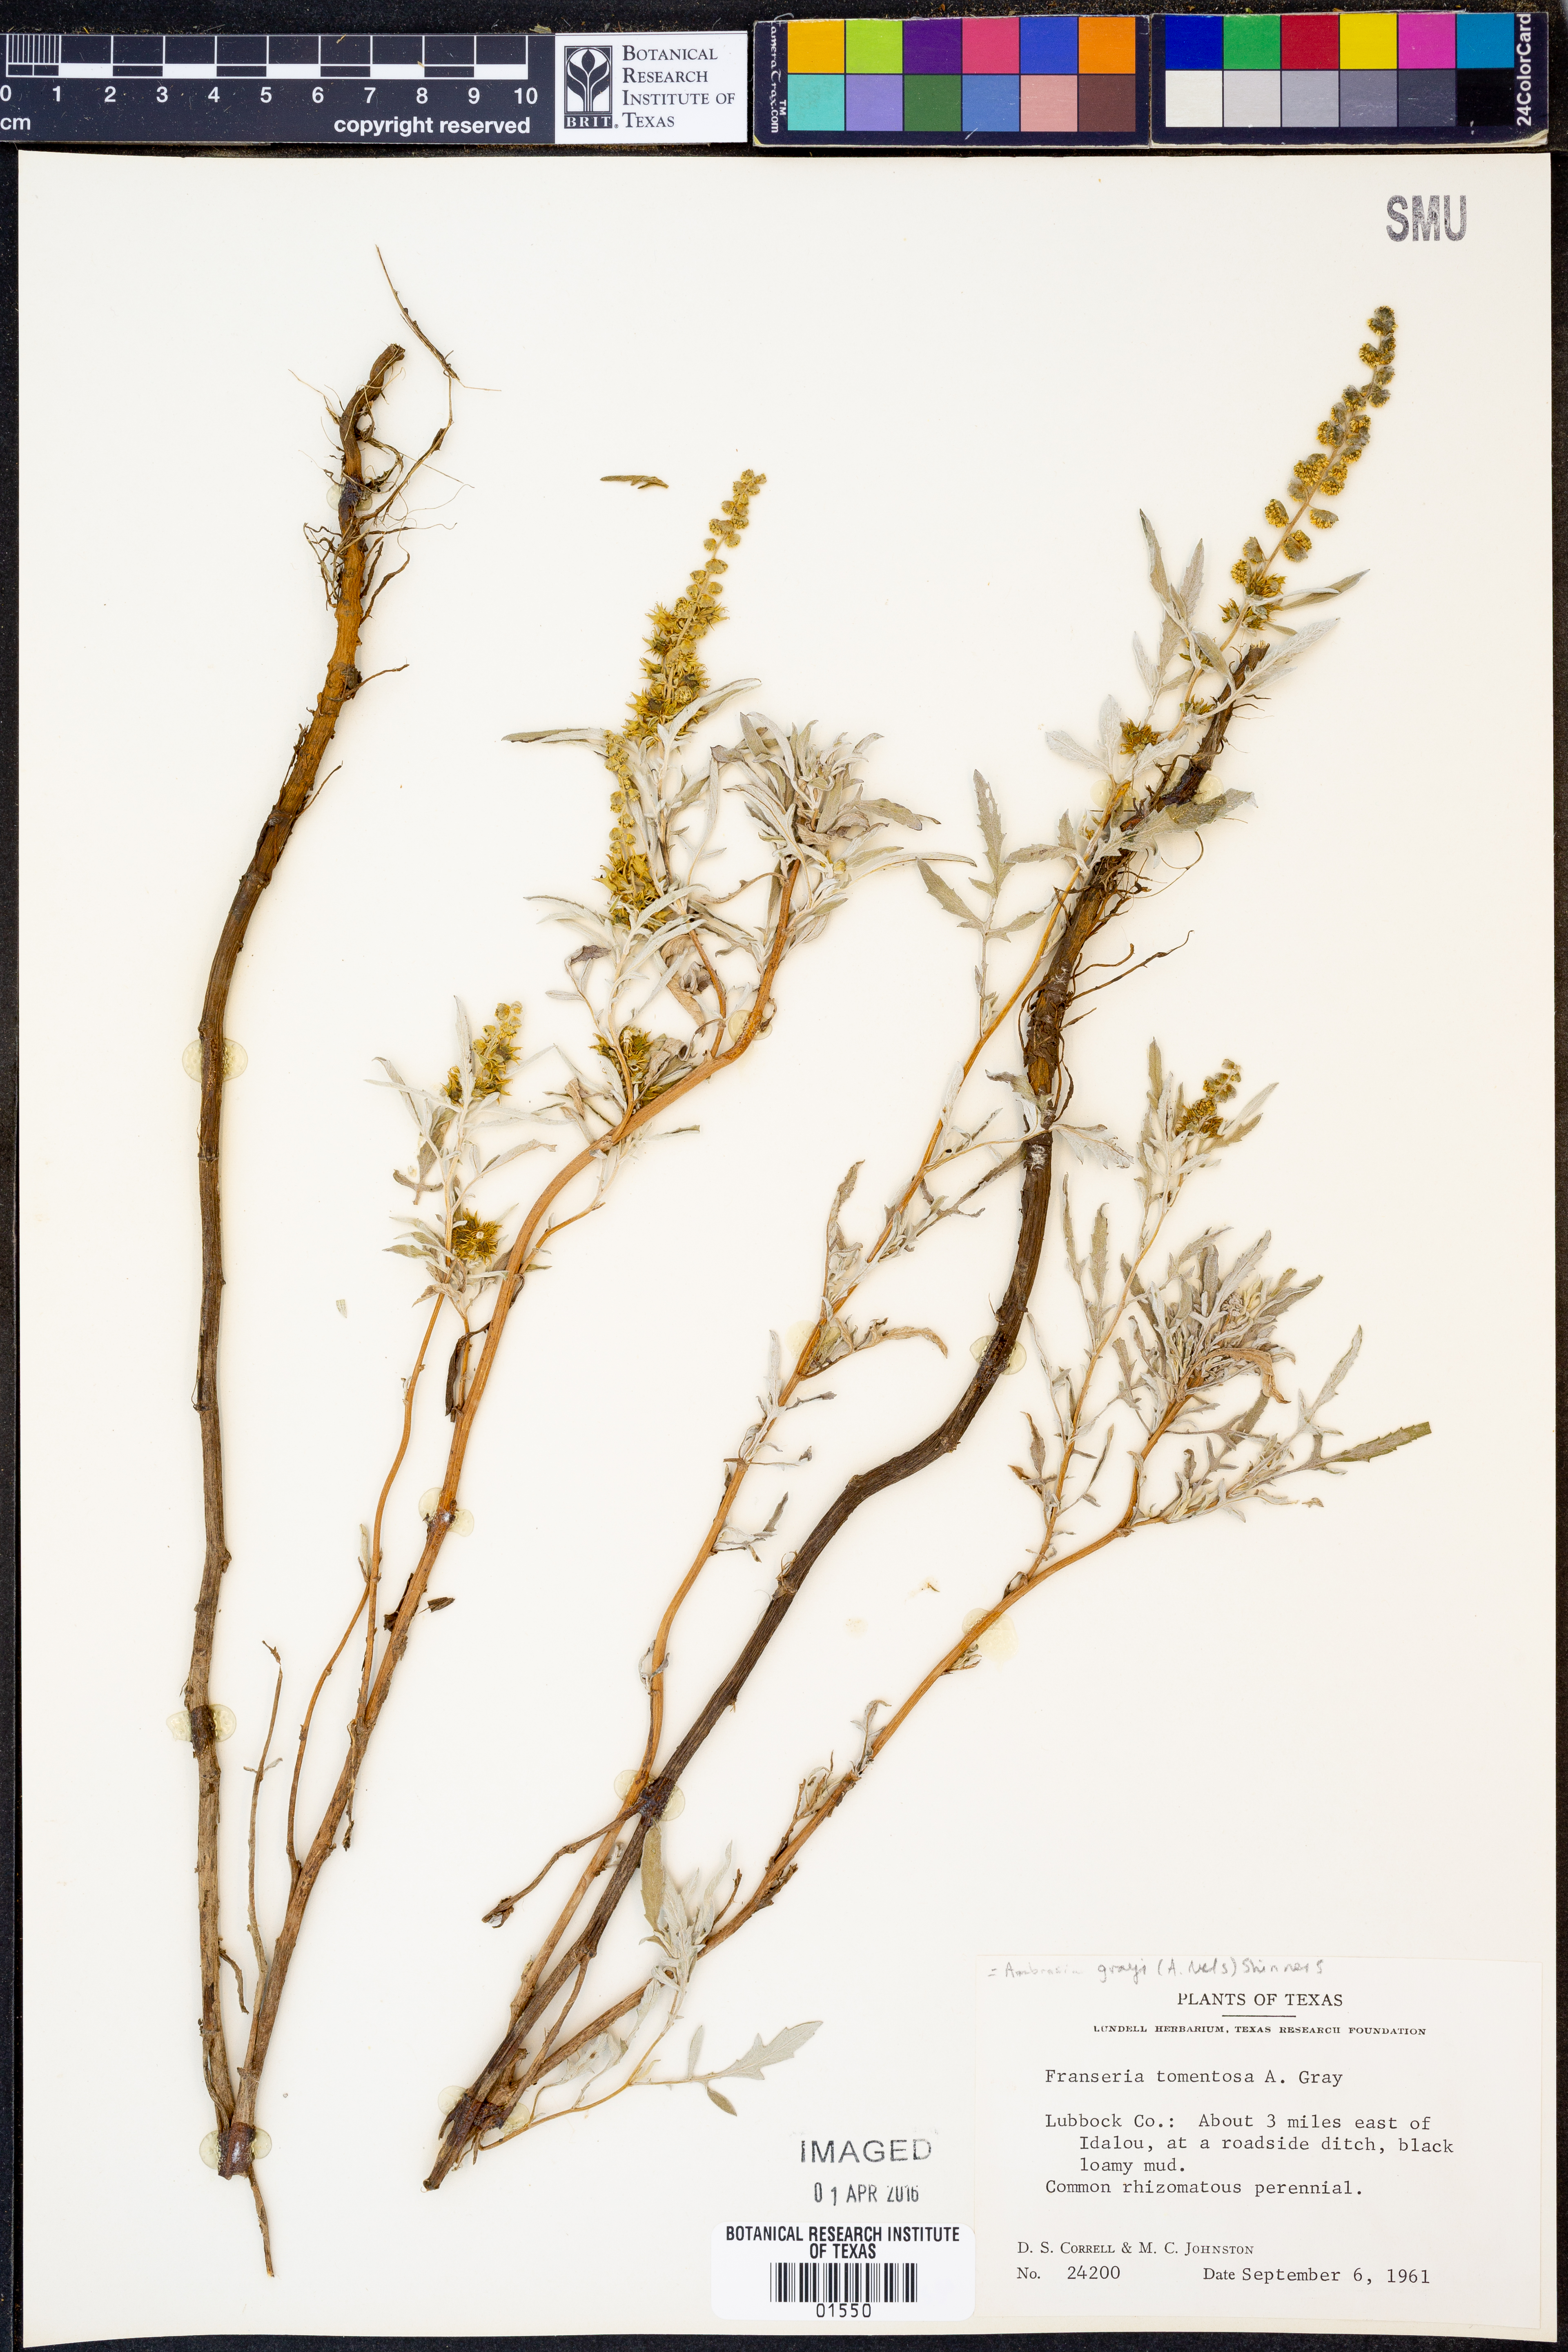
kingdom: Plantae
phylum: Tracheophyta
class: Magnoliopsida
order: Asterales
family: Asteraceae
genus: Ambrosia
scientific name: Ambrosia grayi
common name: Bur ragweed
